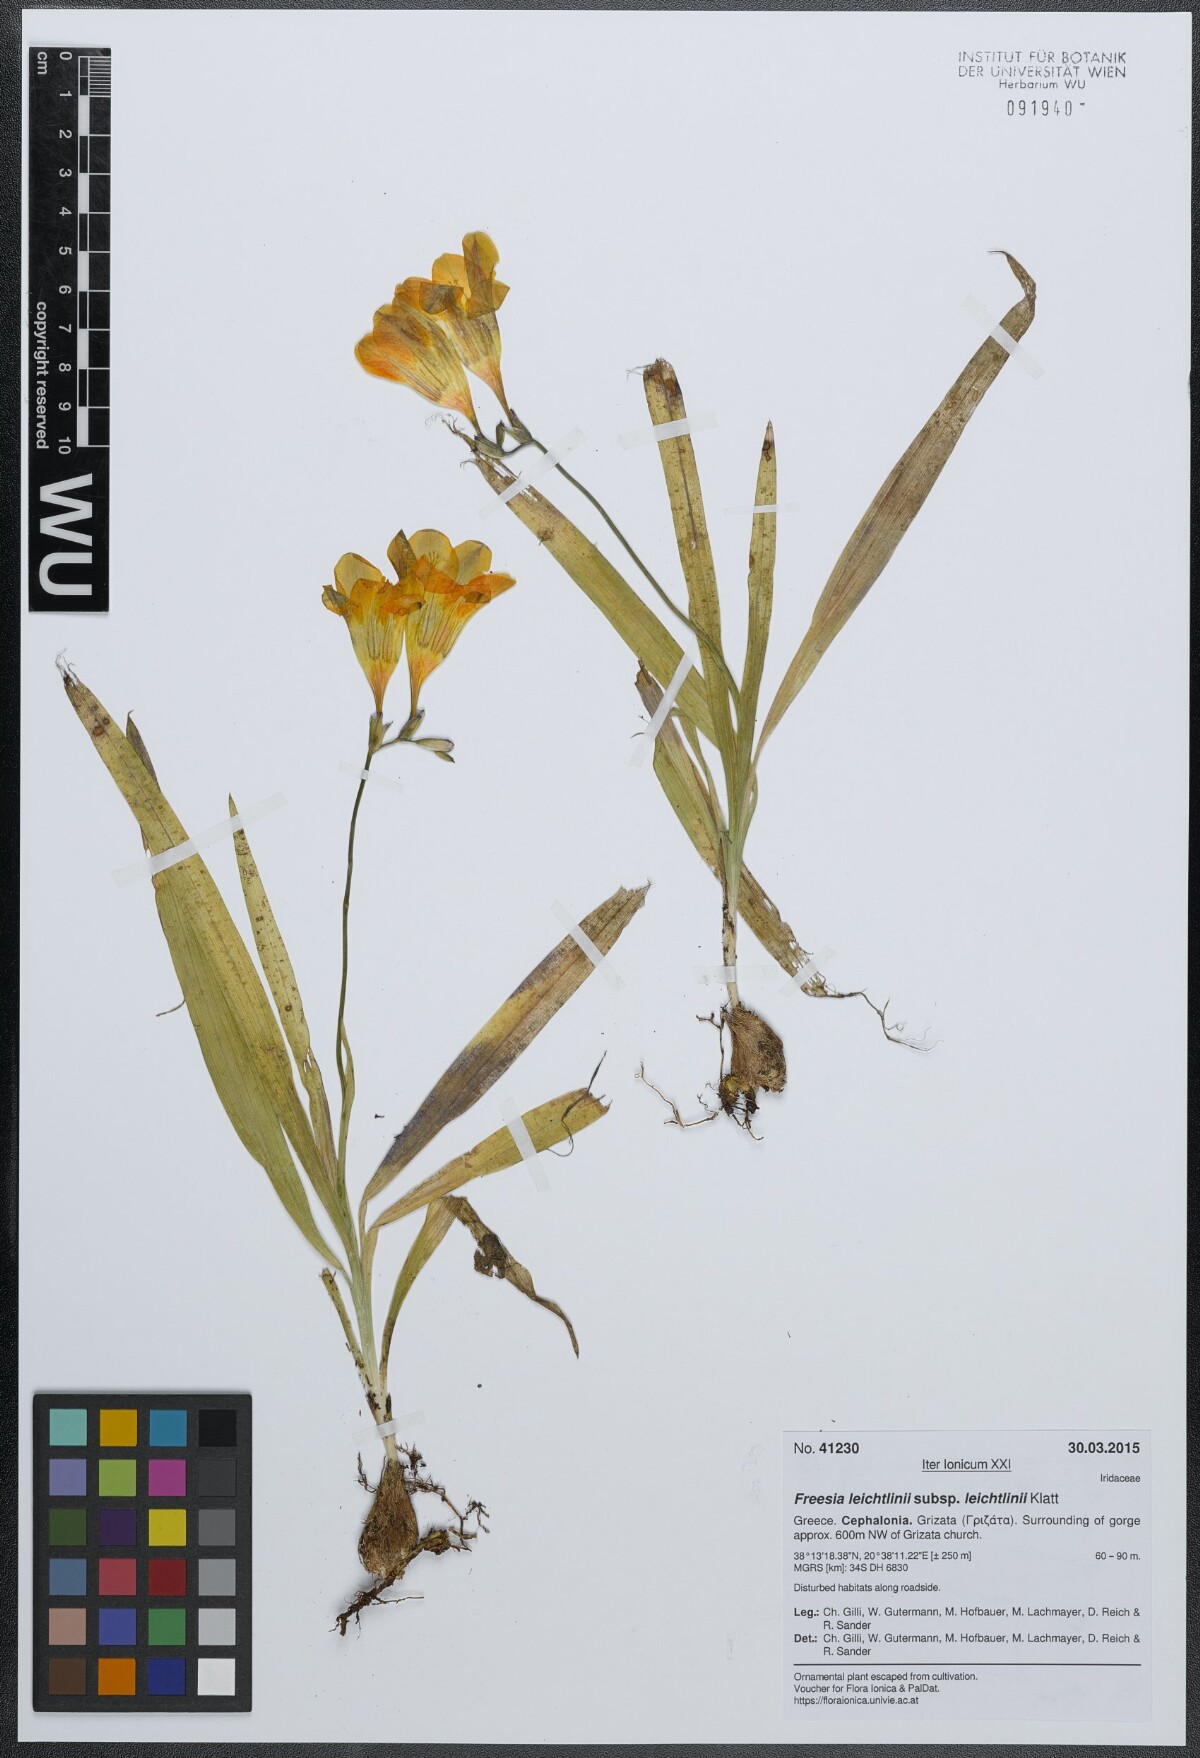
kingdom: Plantae
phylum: Tracheophyta
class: Liliopsida
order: Asparagales
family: Iridaceae
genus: Freesia
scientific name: Freesia leichtlinii
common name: Freesia
